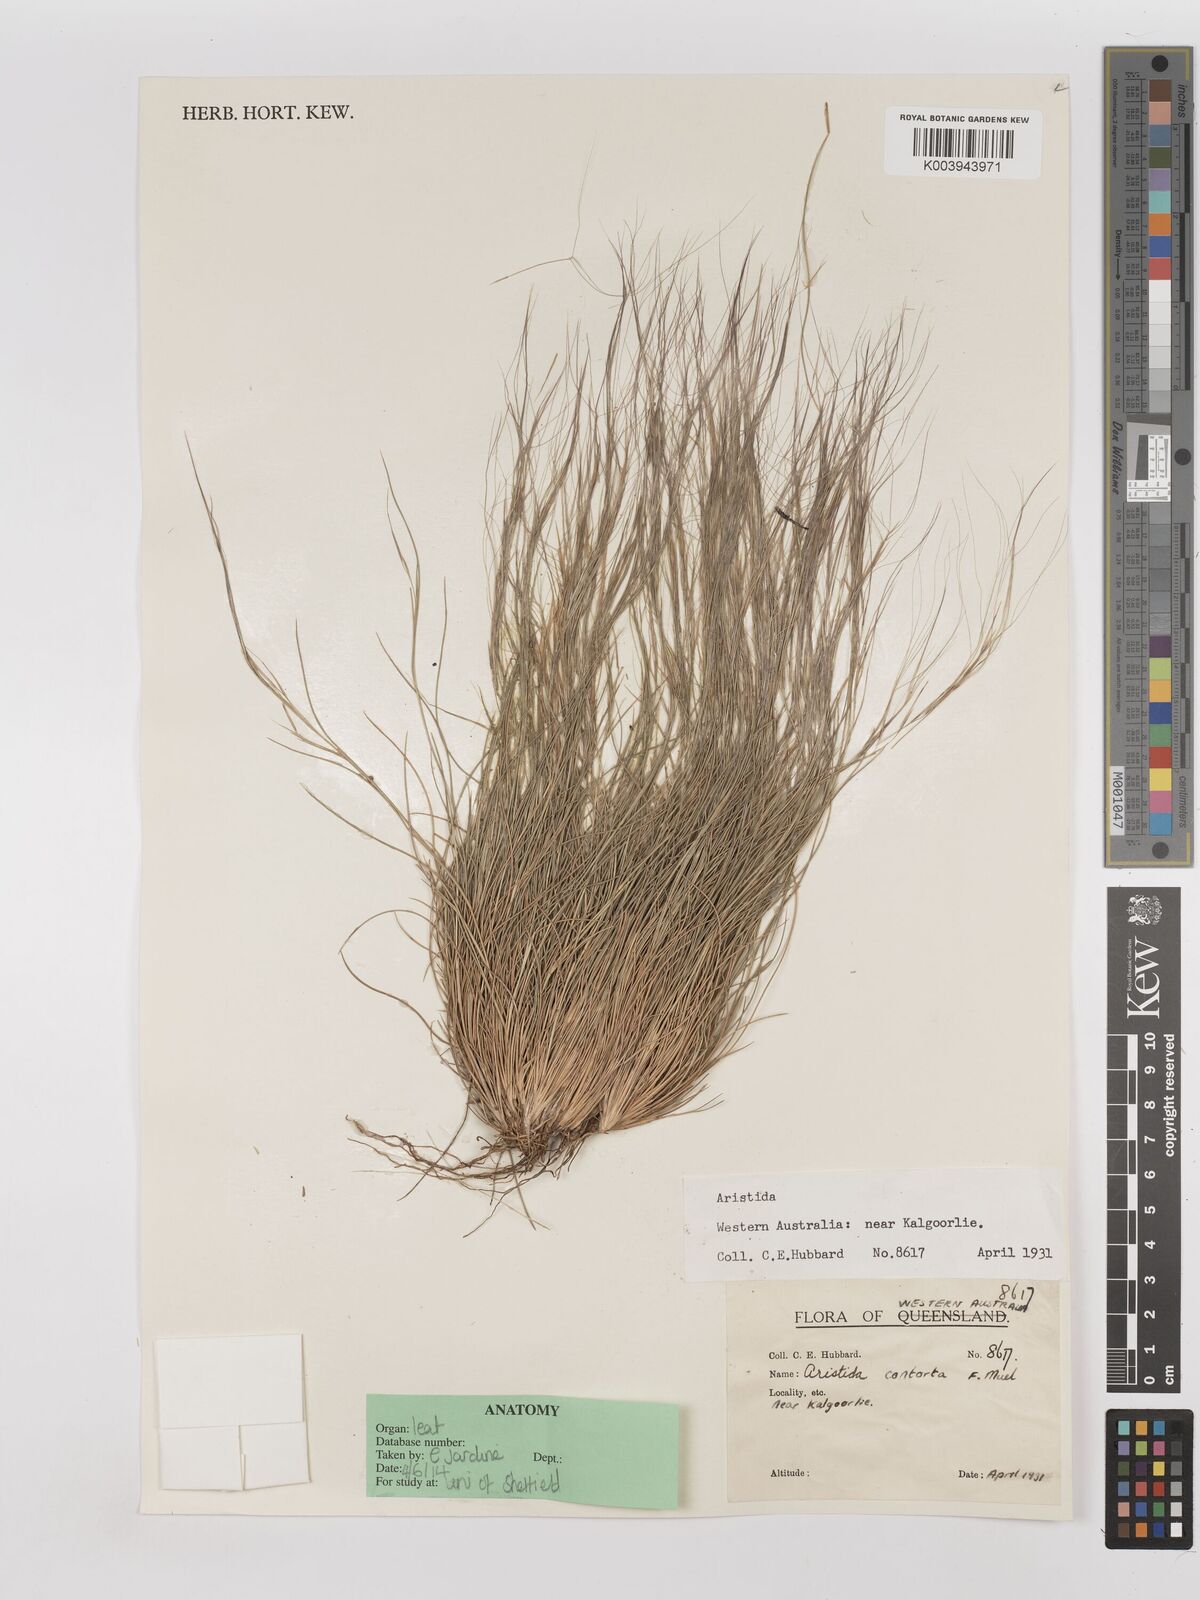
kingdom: Plantae
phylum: Tracheophyta
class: Liliopsida
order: Poales
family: Poaceae
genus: Aristida
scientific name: Aristida contorta
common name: Bunch kerosene grass
